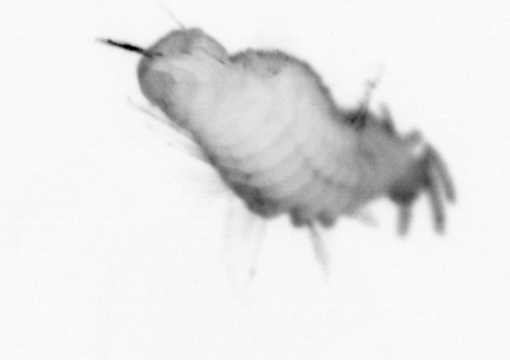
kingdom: Animalia
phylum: Annelida
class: Polychaeta
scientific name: Polychaeta
